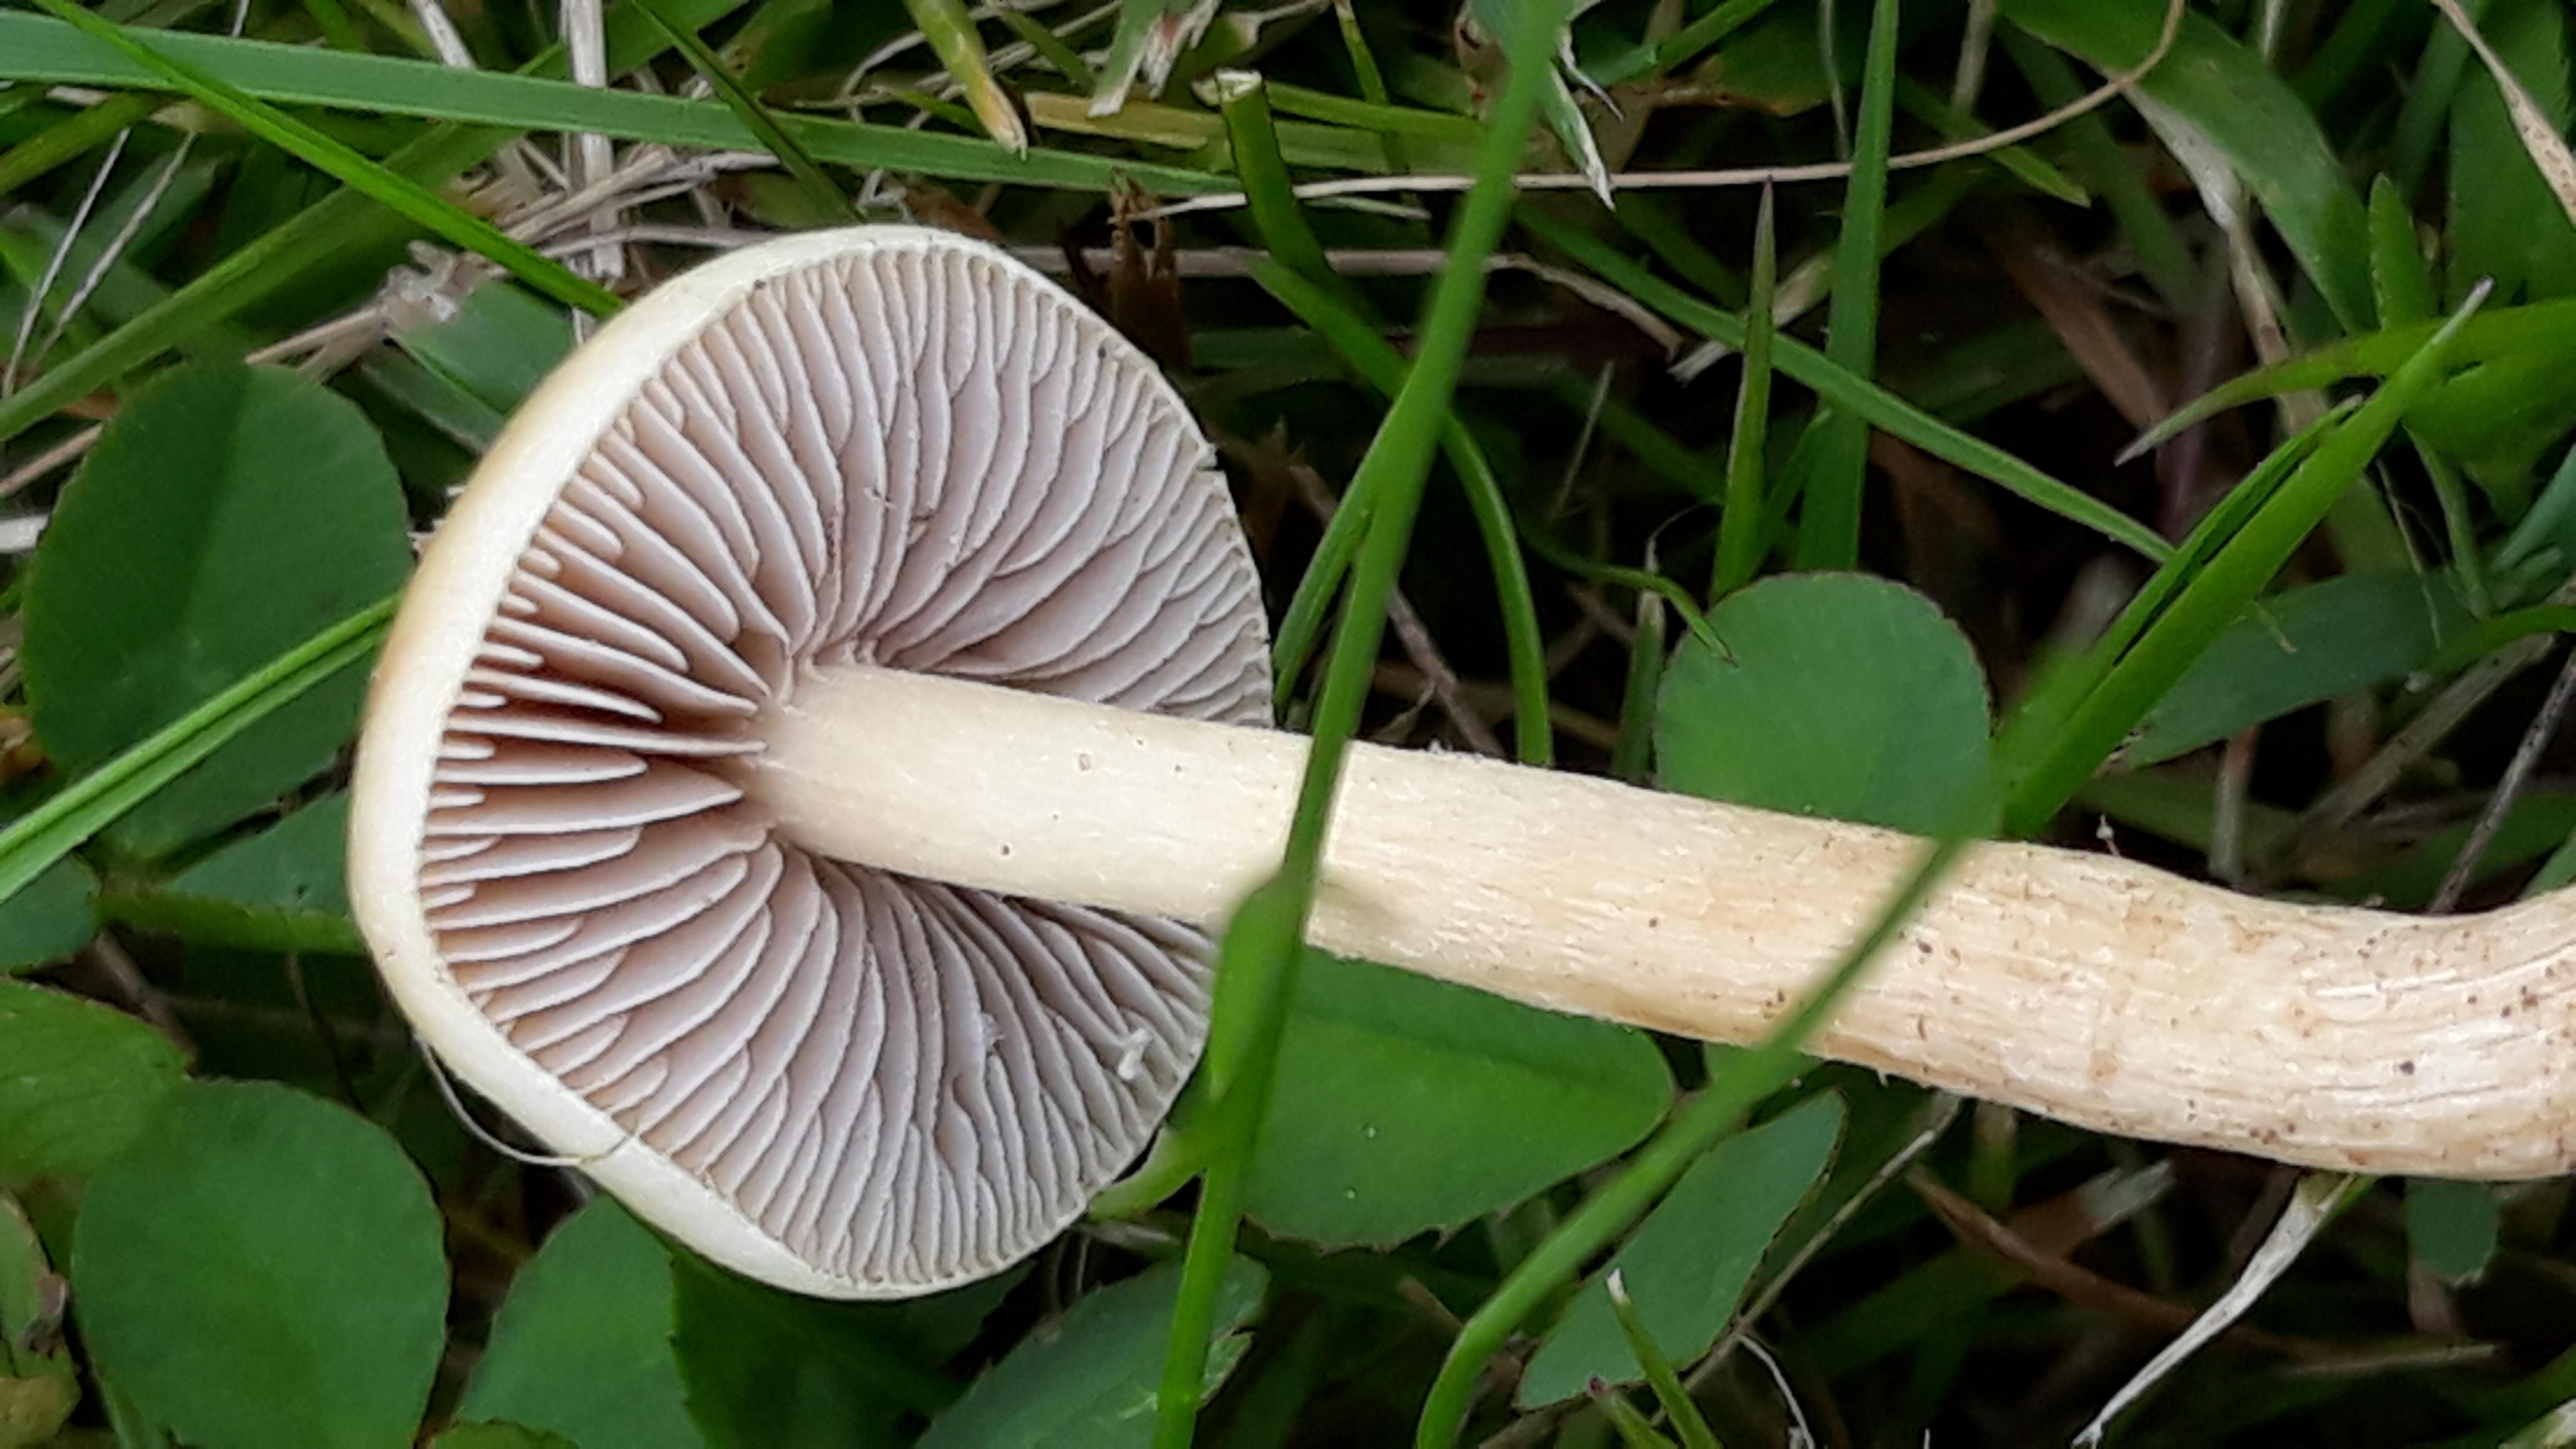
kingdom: Fungi
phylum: Basidiomycota
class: Agaricomycetes
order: Agaricales
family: Strophariaceae
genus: Agrocybe
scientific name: Agrocybe
